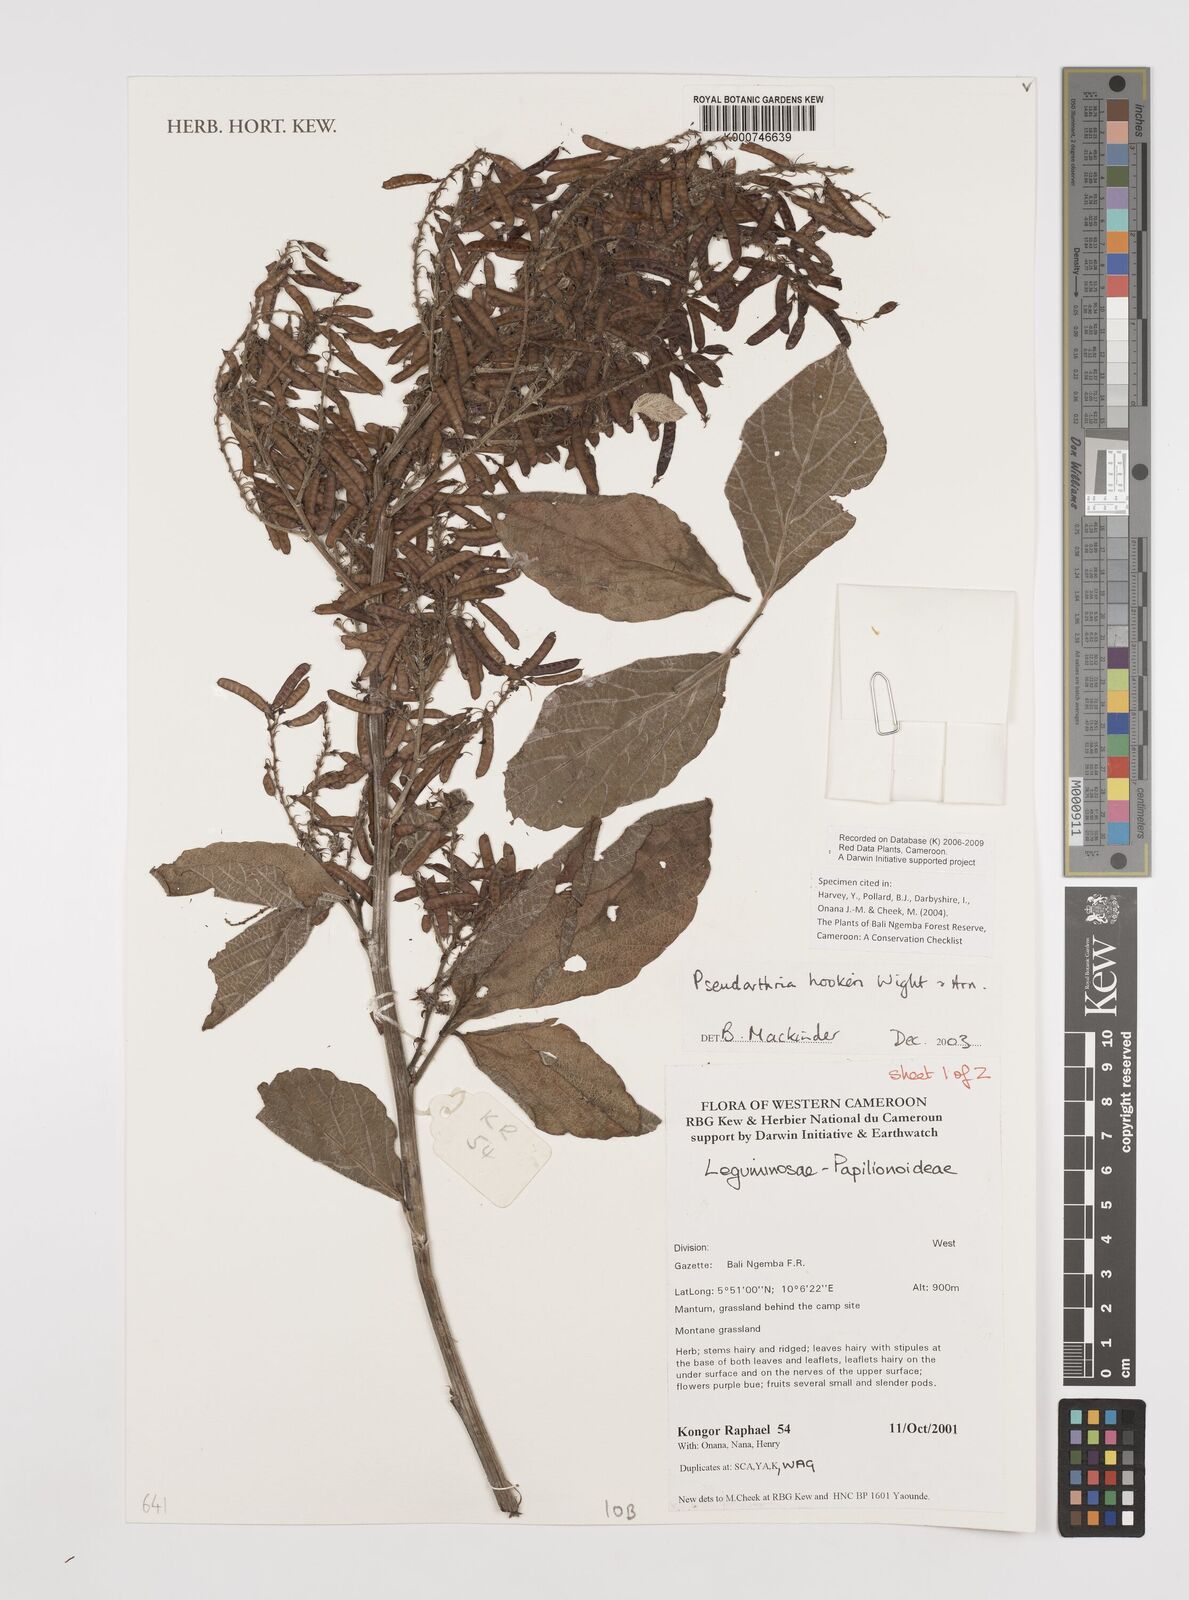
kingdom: Plantae
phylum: Tracheophyta
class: Magnoliopsida
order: Fabales
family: Fabaceae
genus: Pseudarthria
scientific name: Pseudarthria hookeri
